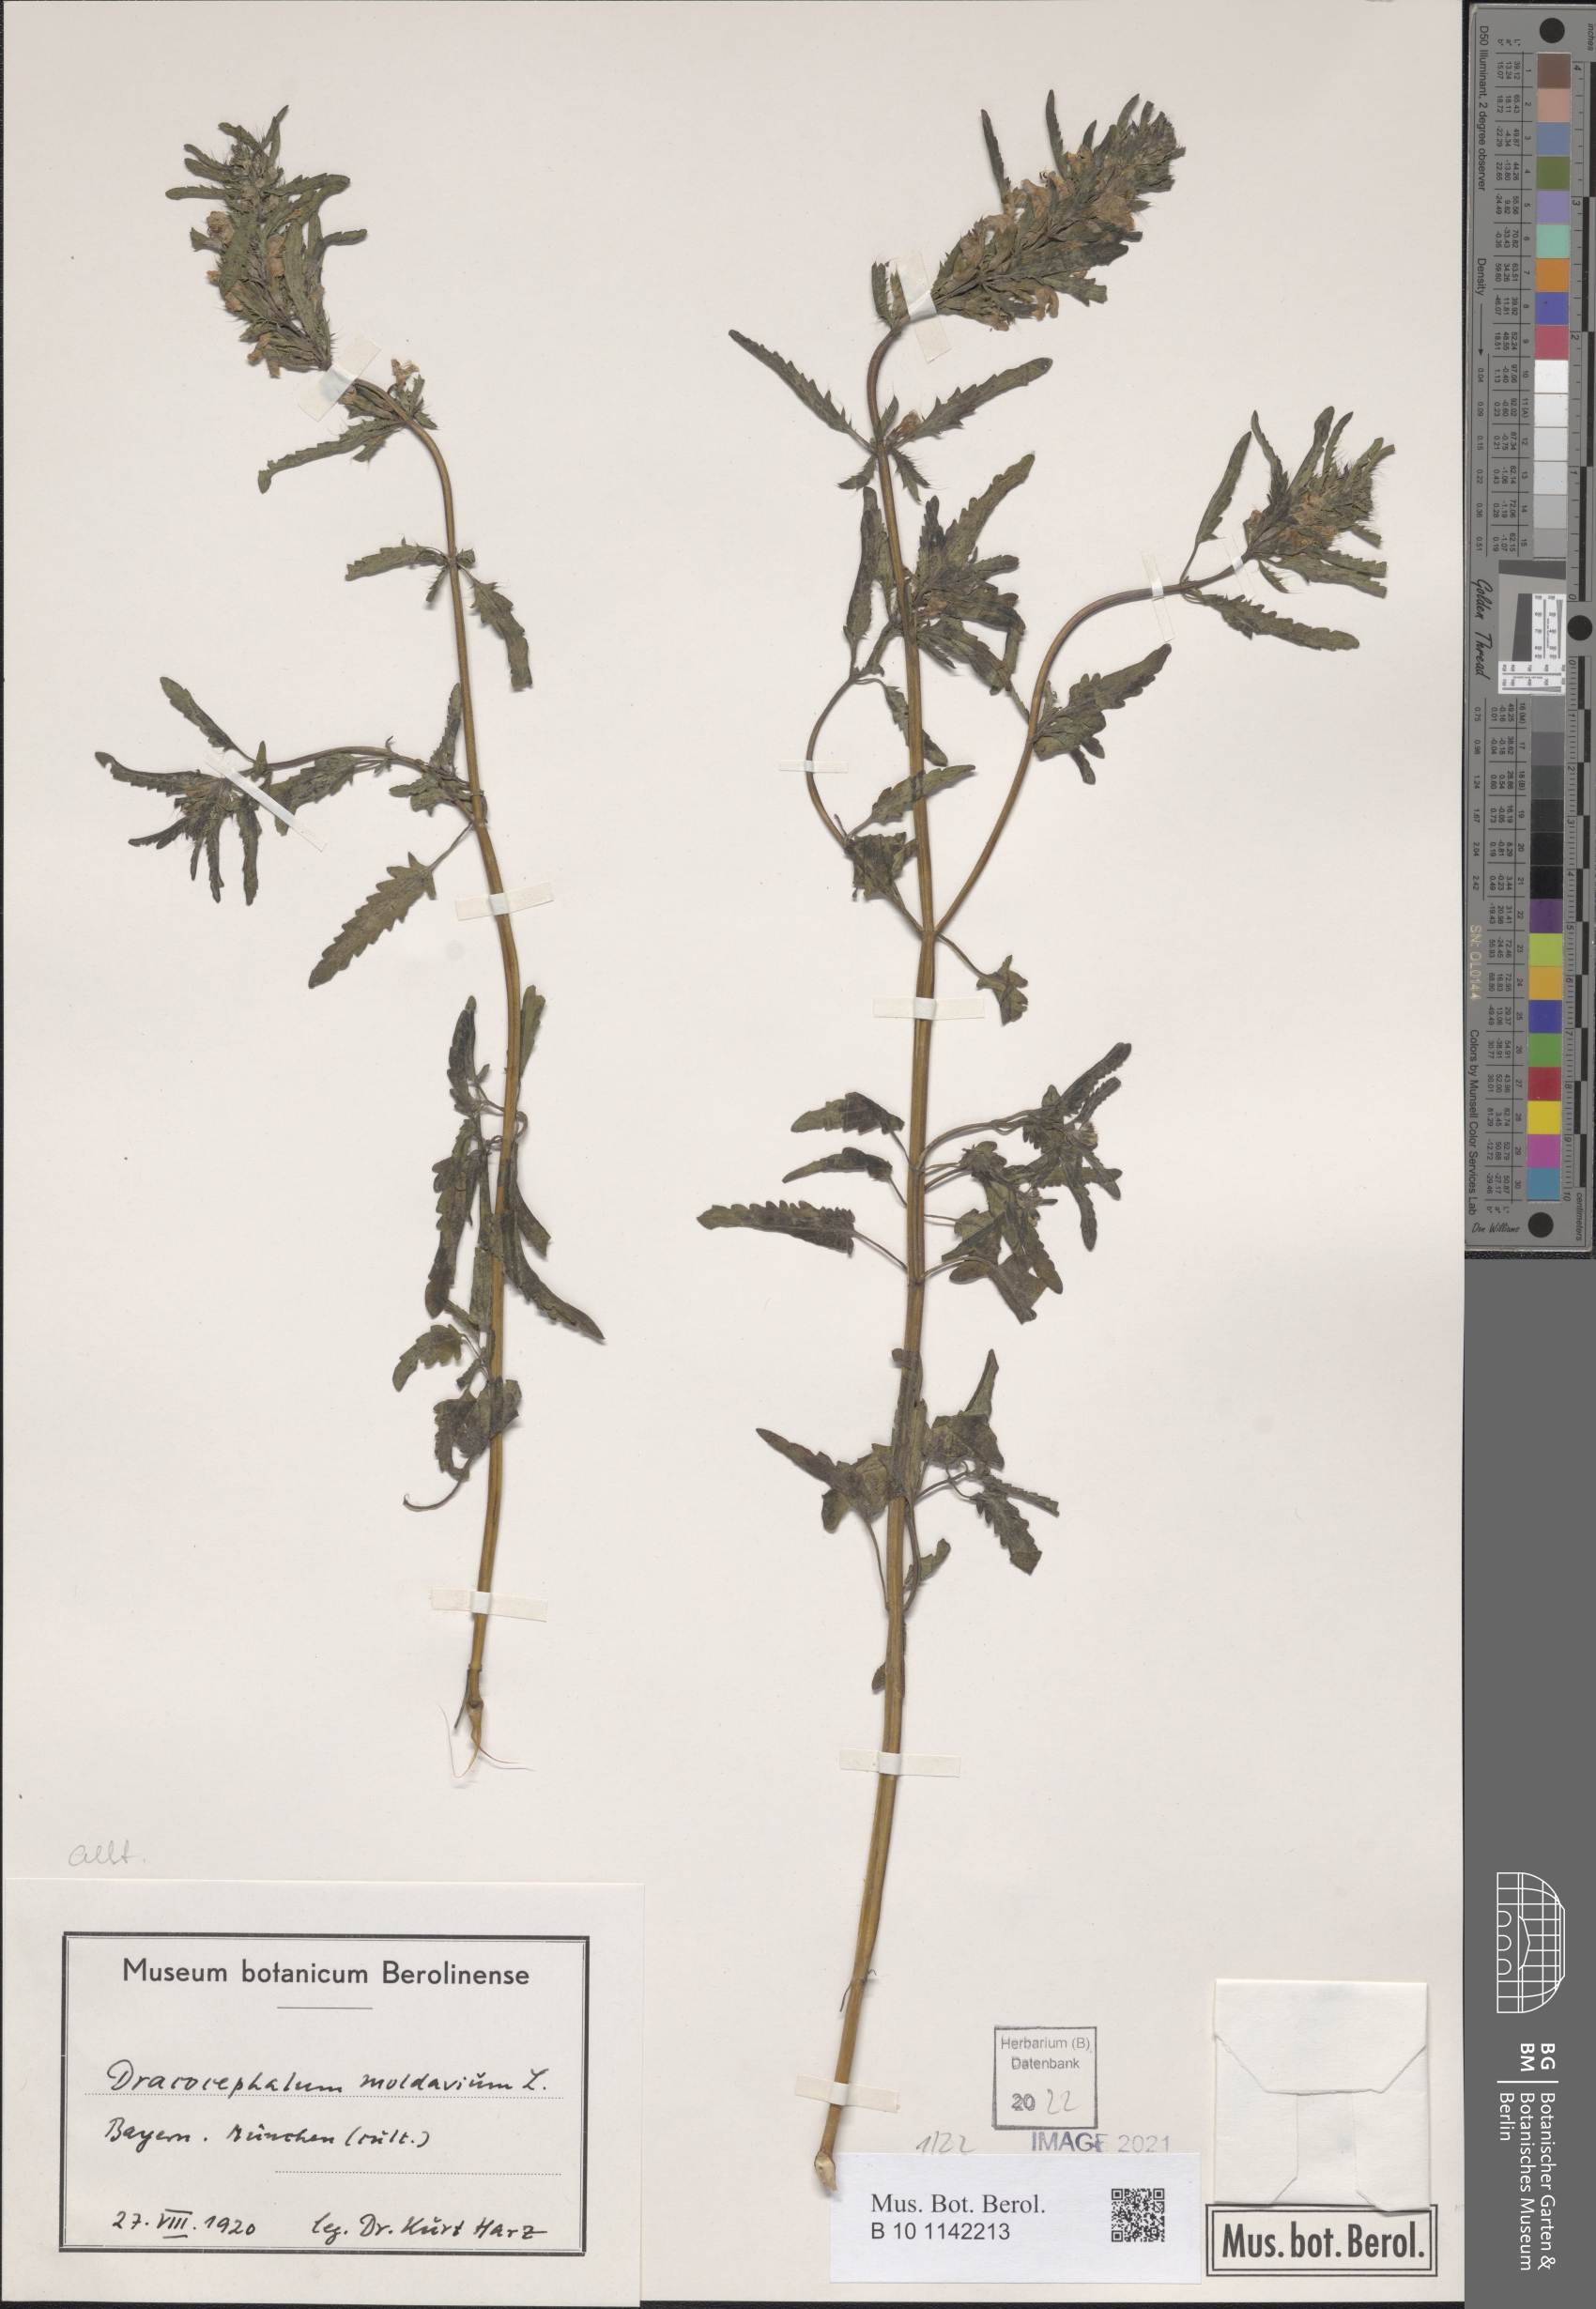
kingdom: Plantae
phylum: Tracheophyta
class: Magnoliopsida
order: Lamiales
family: Lamiaceae
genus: Dracocephalum
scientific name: Dracocephalum moldavica
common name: Moldavian dragonhead
